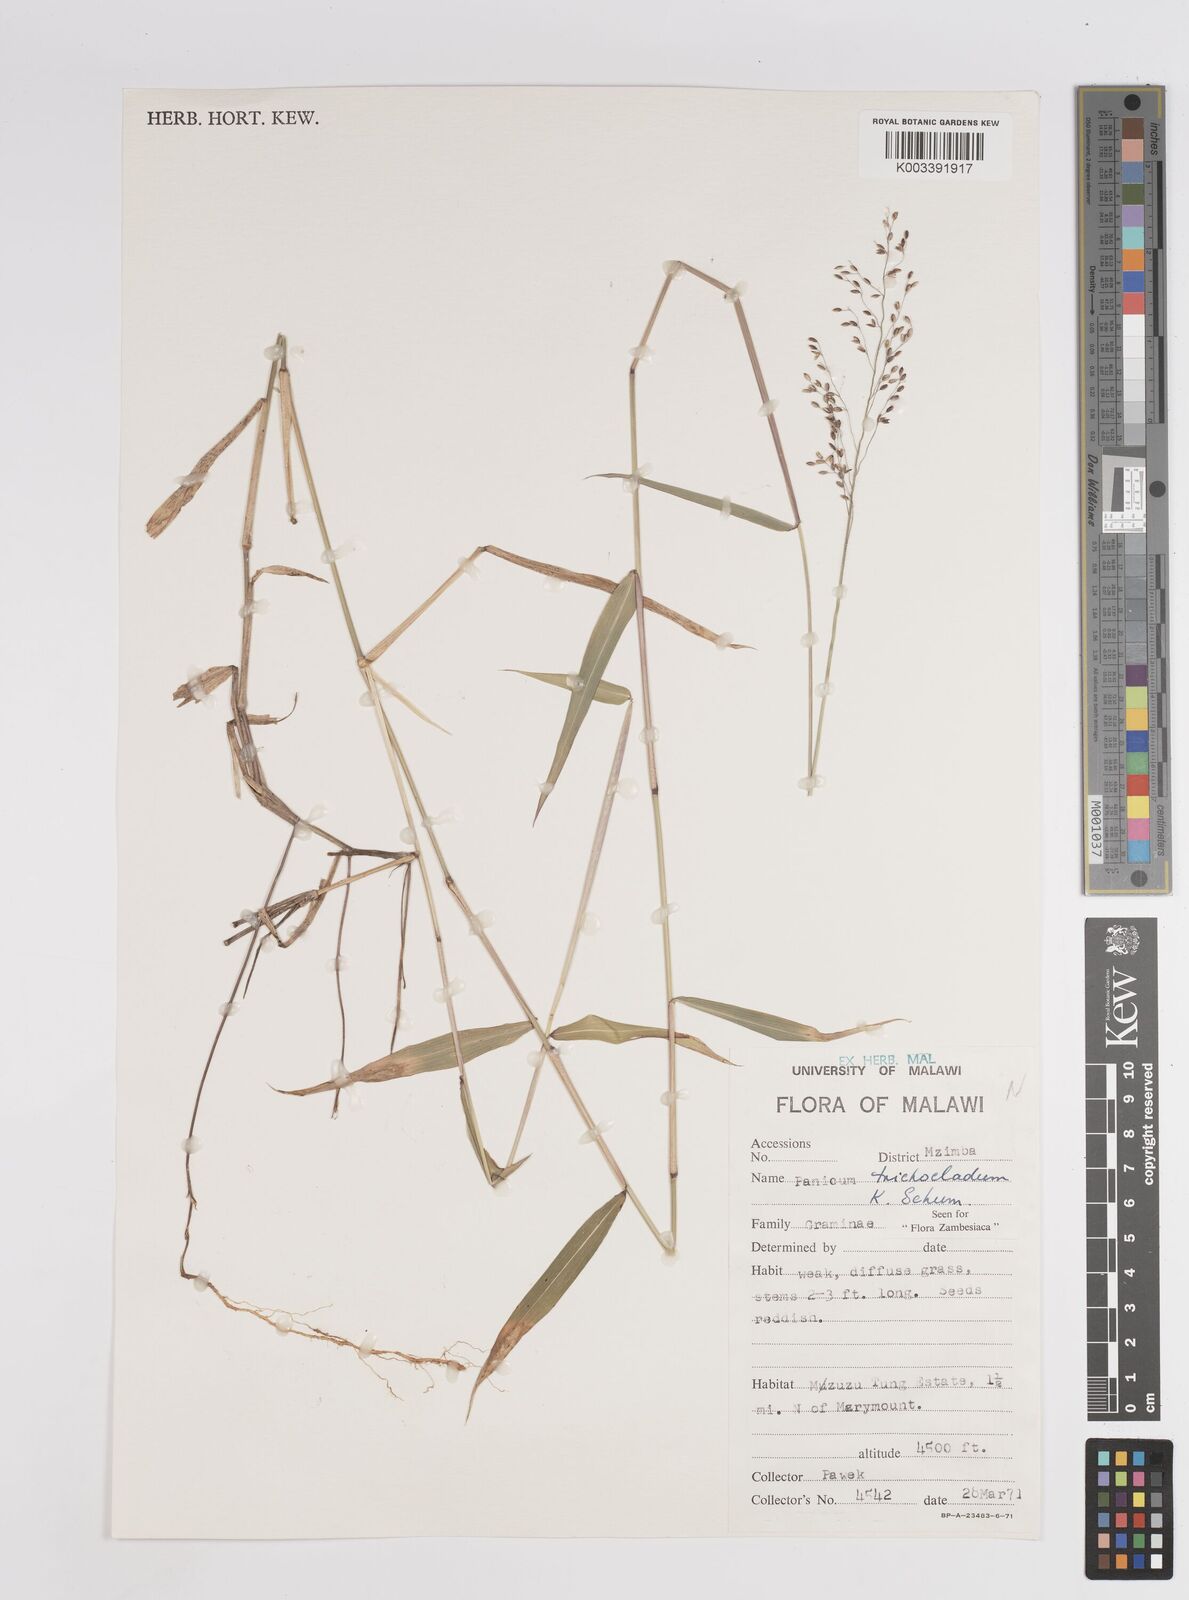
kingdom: Plantae
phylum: Tracheophyta
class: Liliopsida
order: Poales
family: Poaceae
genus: Panicum
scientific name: Panicum trichocladum
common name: Donkey grass
